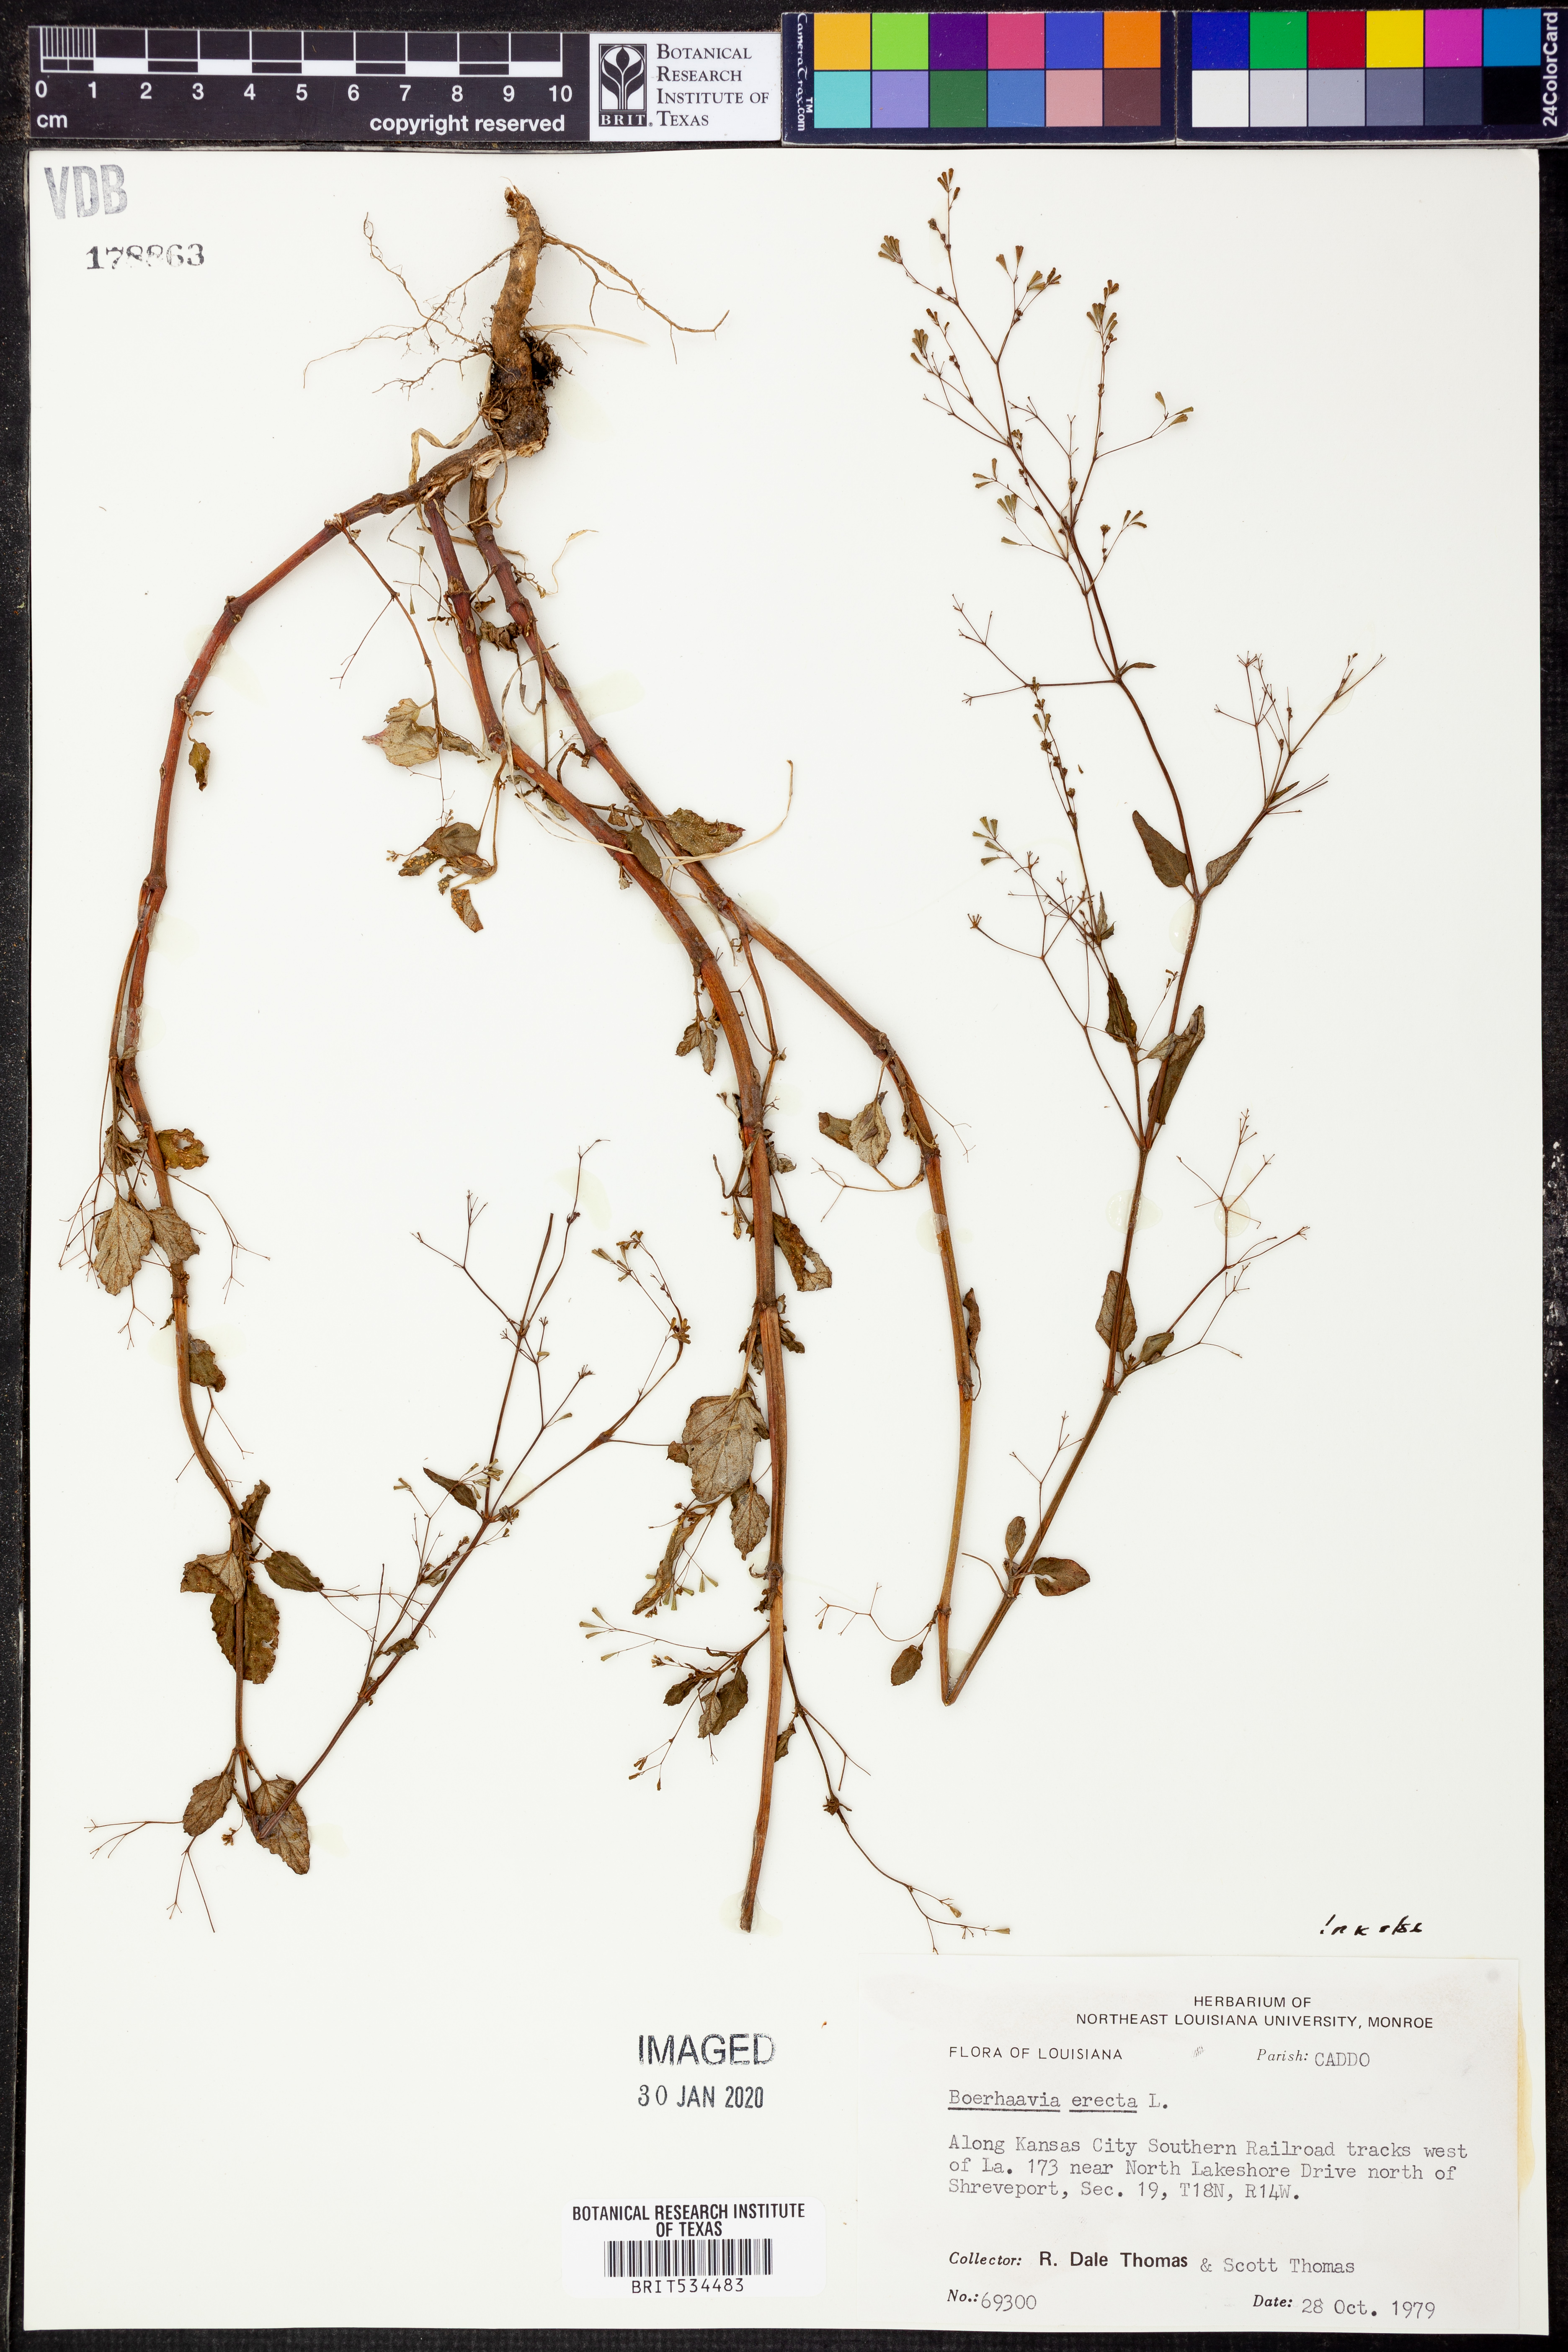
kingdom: Plantae
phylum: Tracheophyta
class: Magnoliopsida
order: Caryophyllales
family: Nyctaginaceae
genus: Boerhavia
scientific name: Boerhavia erecta
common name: Erect spiderling
